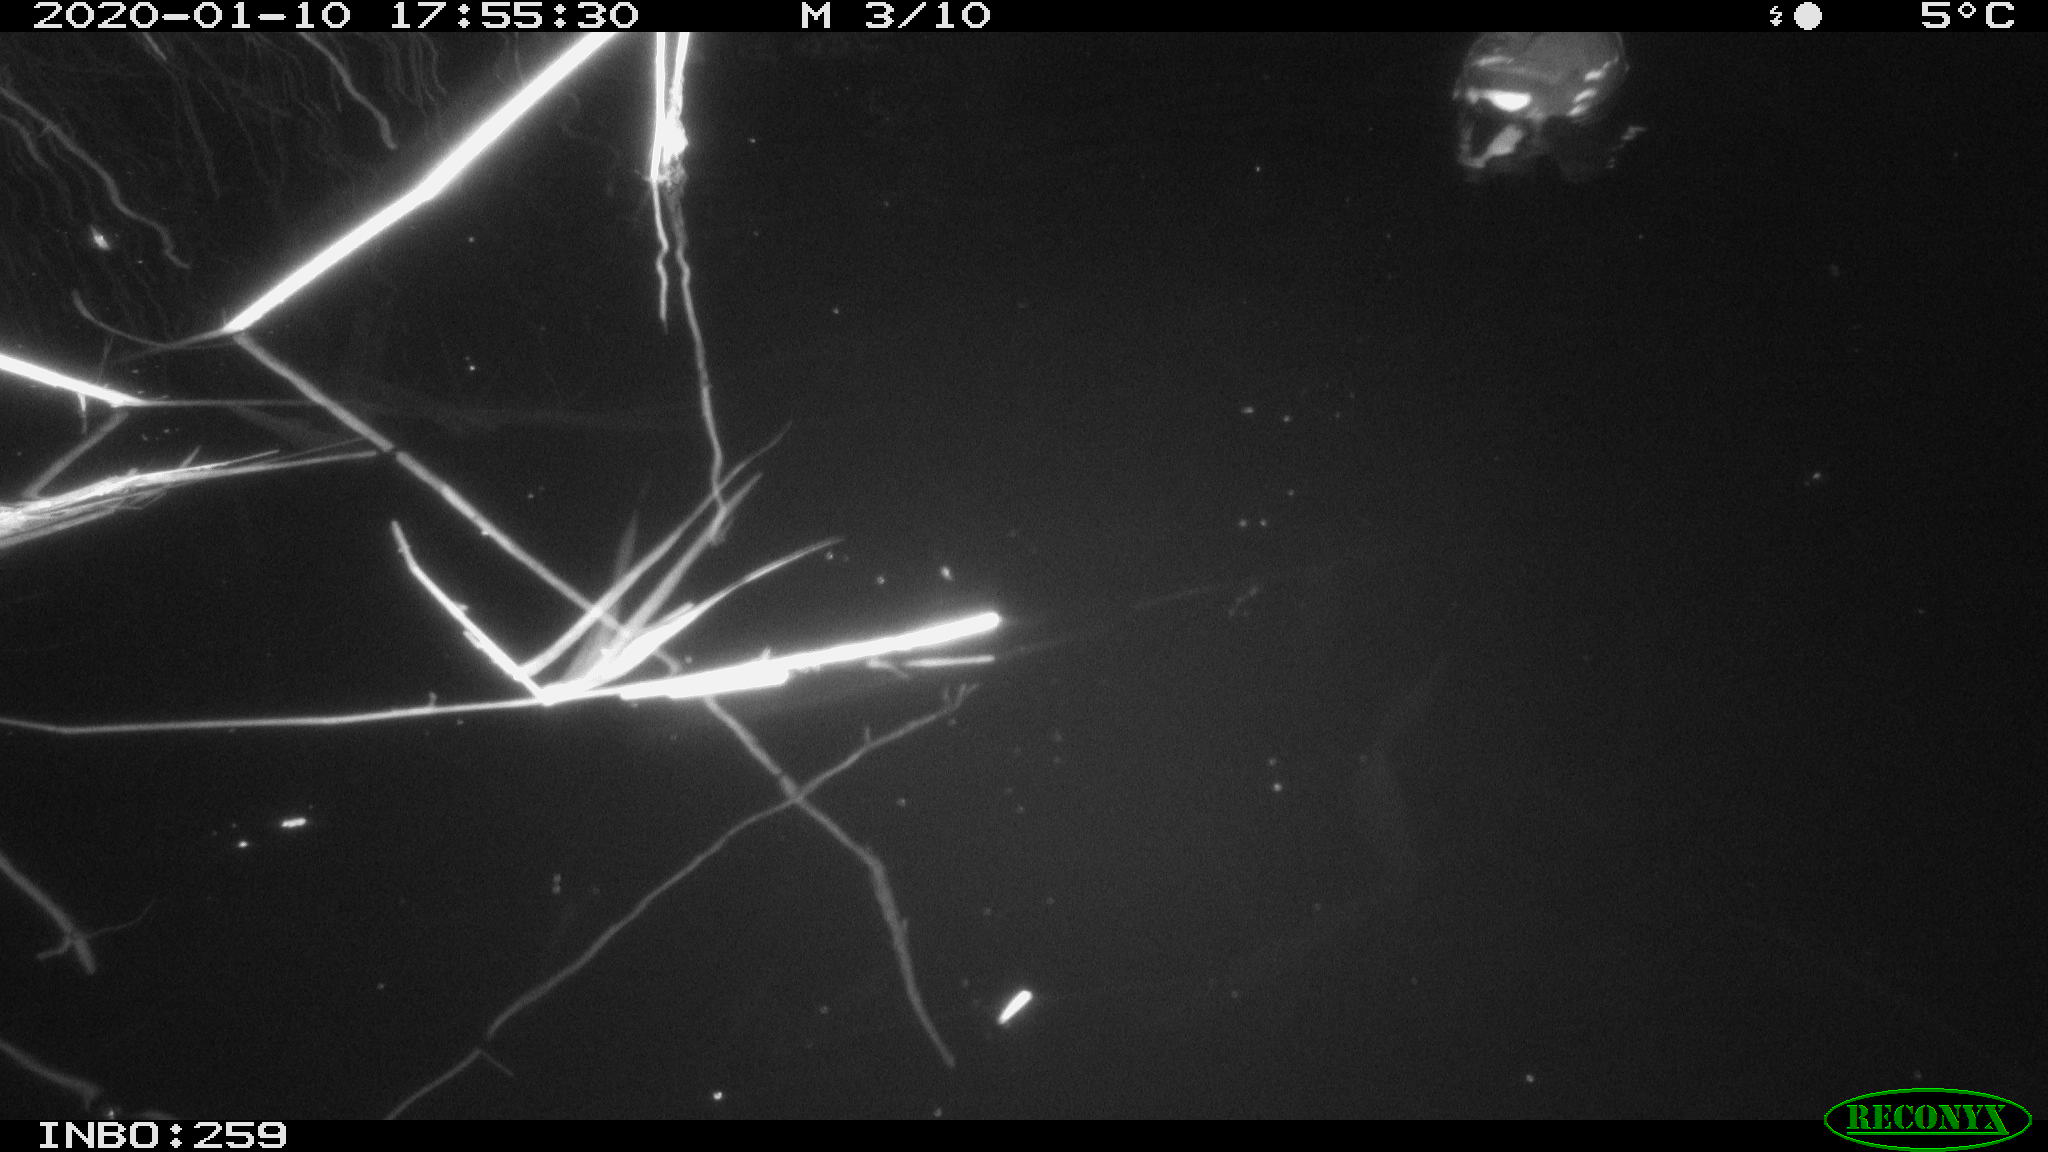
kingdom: Animalia
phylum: Chordata
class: Aves
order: Gruiformes
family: Rallidae
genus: Gallinula
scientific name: Gallinula chloropus
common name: Common moorhen
